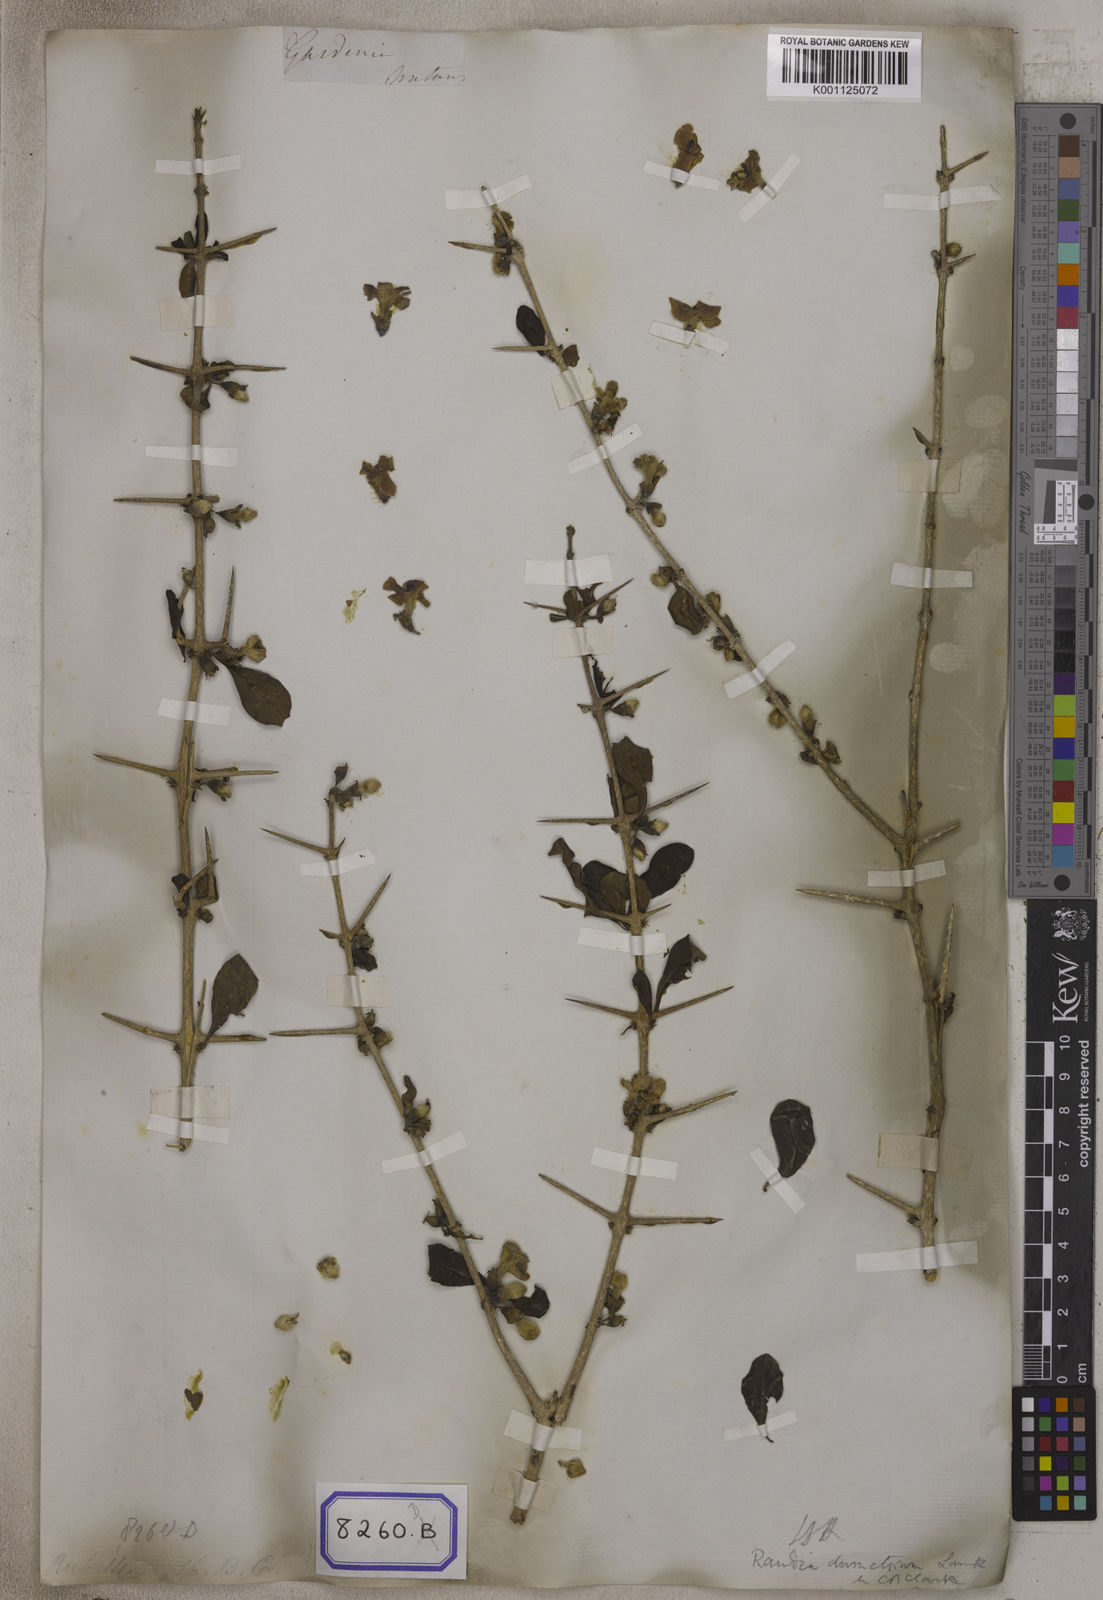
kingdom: Plantae
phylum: Tracheophyta
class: Magnoliopsida
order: Gentianales
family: Rubiaceae
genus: Gardenia
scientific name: Gardenia
